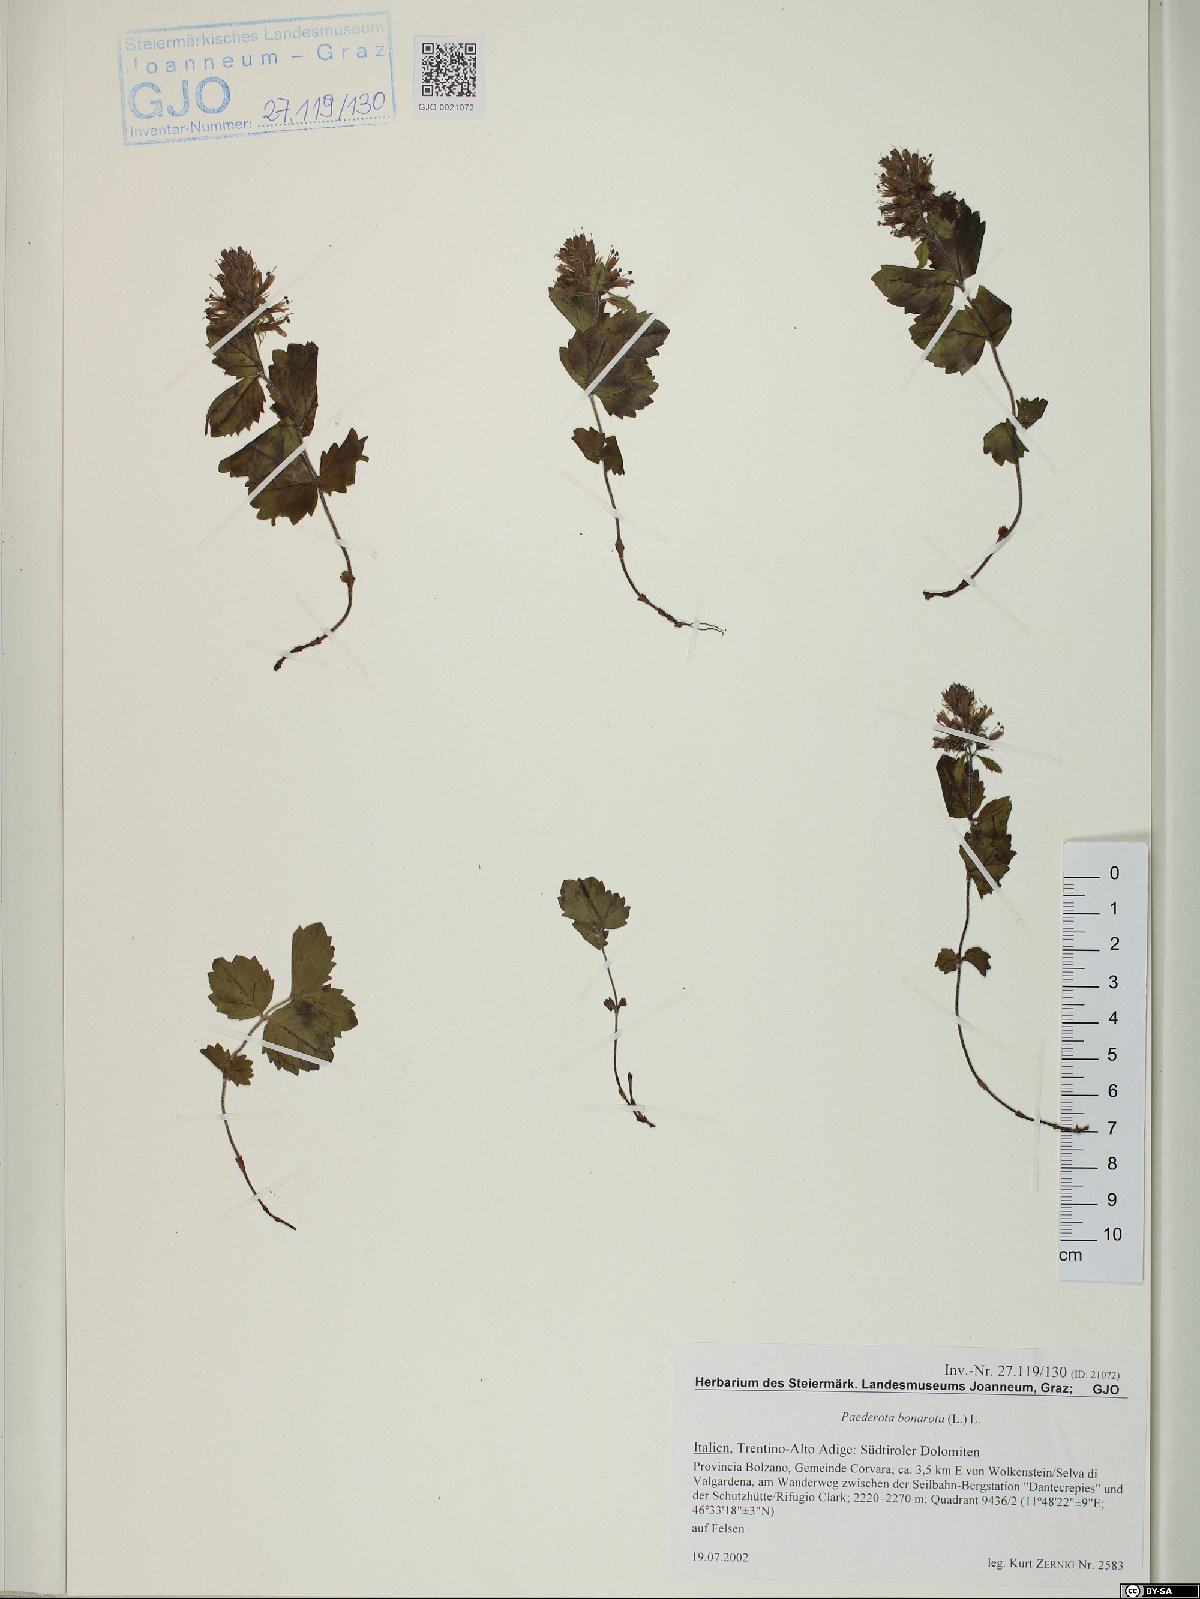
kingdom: Plantae
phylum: Tracheophyta
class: Magnoliopsida
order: Lamiales
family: Plantaginaceae
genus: Paederota
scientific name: Paederota bonarota
